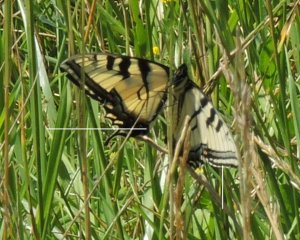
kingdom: Animalia
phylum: Arthropoda
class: Insecta
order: Lepidoptera
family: Papilionidae
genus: Pterourus
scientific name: Pterourus canadensis
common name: Canadian Tiger Swallowtail
